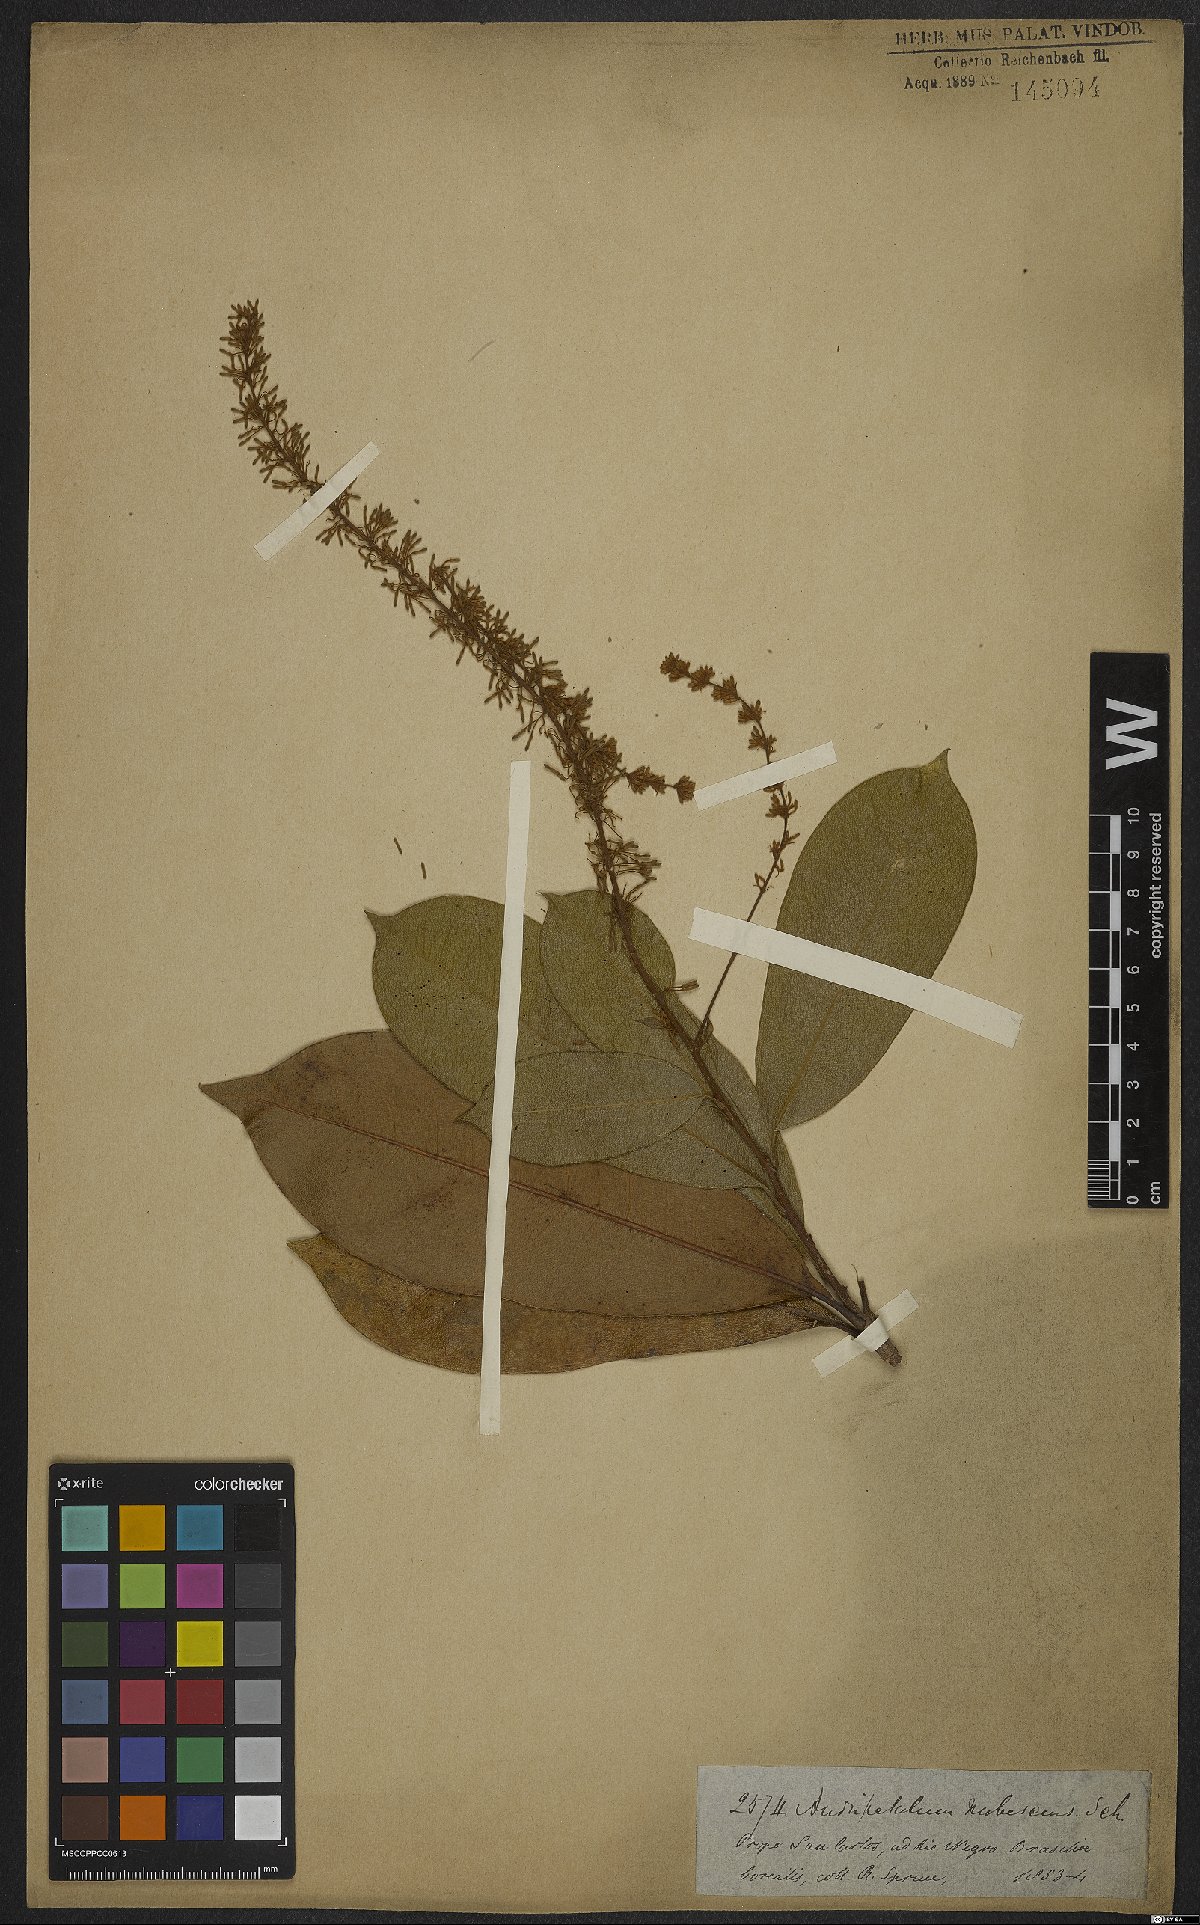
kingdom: Plantae
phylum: Tracheophyta
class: Magnoliopsida
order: Proteales
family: Proteaceae
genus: Panopsis
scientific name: Panopsis rubescens
